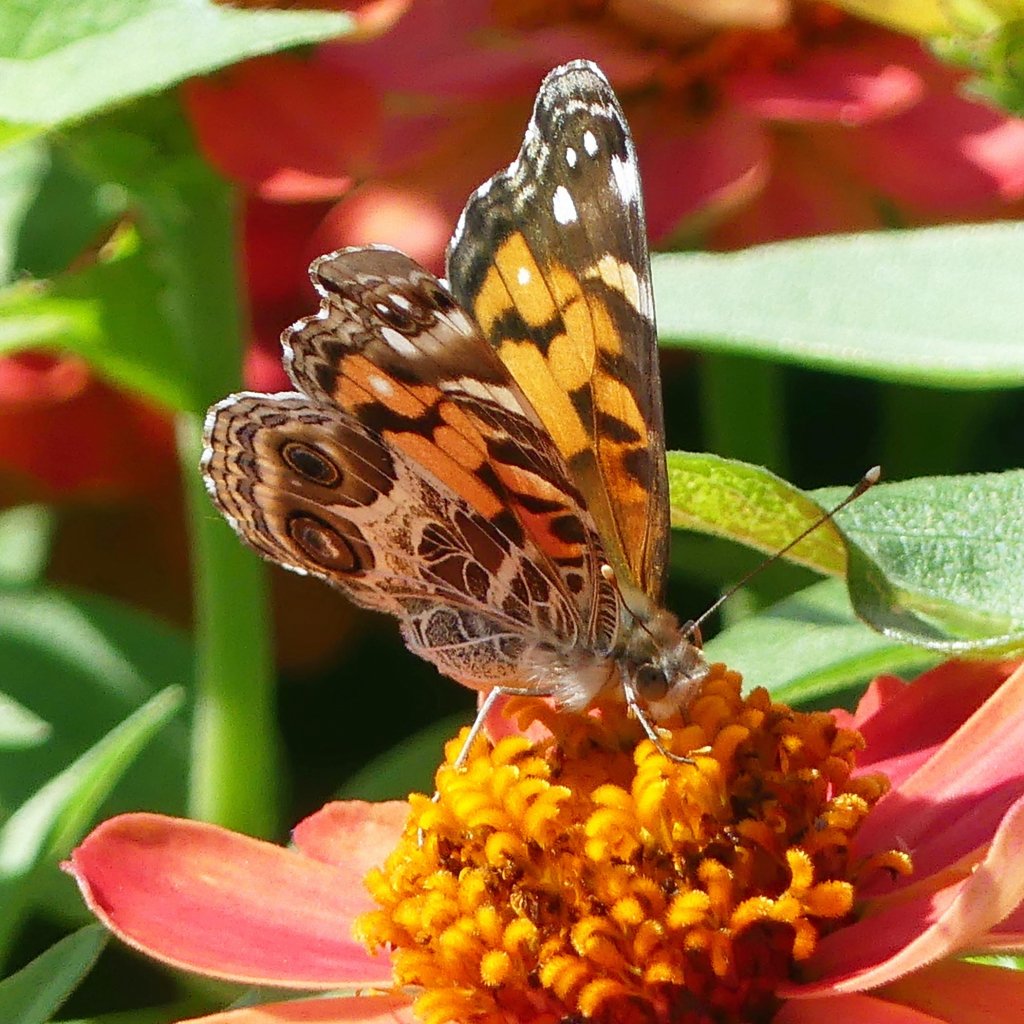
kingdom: Animalia
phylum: Arthropoda
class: Insecta
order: Lepidoptera
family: Nymphalidae
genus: Vanessa
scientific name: Vanessa virginiensis
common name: American Lady
